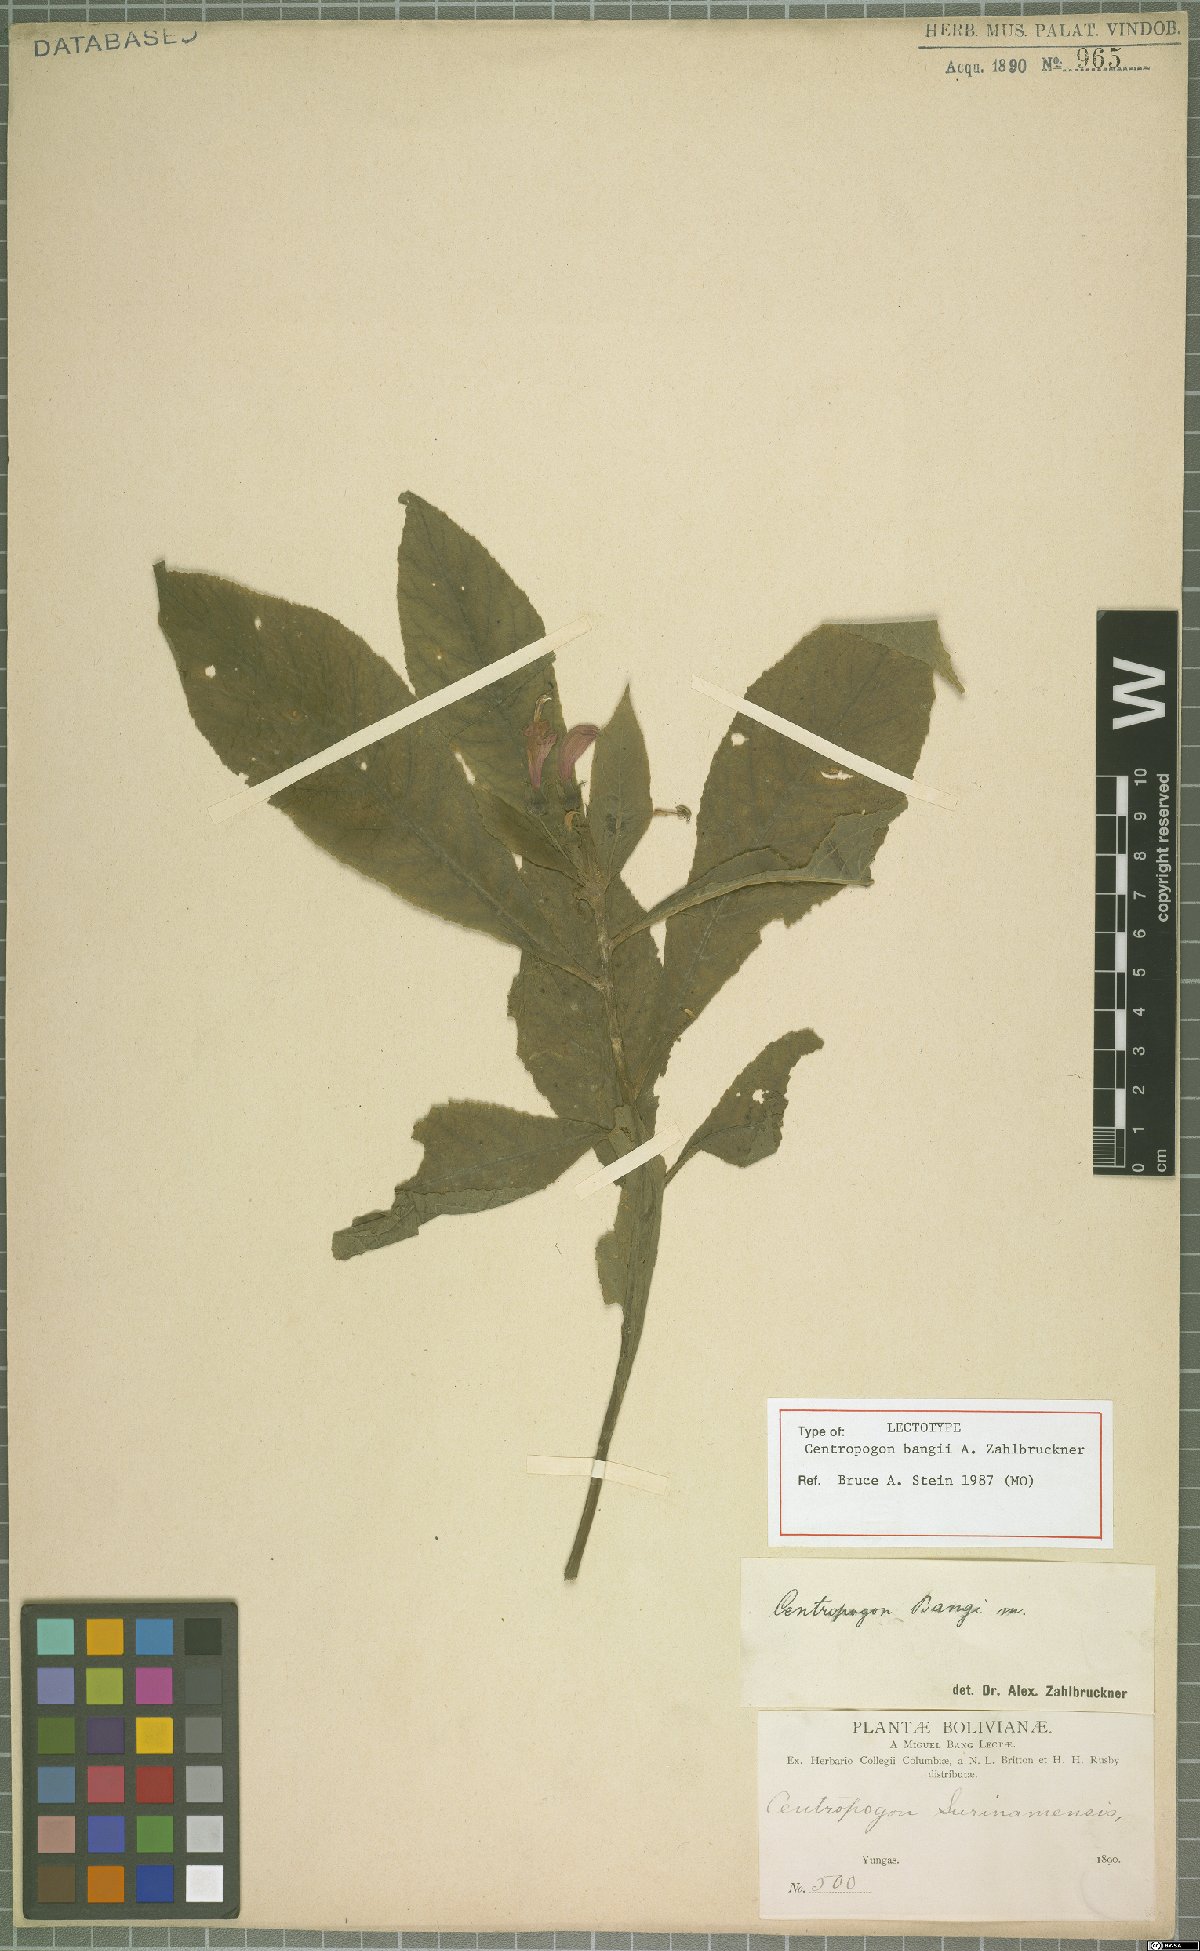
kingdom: Plantae
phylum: Tracheophyta
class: Magnoliopsida
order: Asterales
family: Campanulaceae
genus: Centropogon
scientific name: Centropogon bangii
